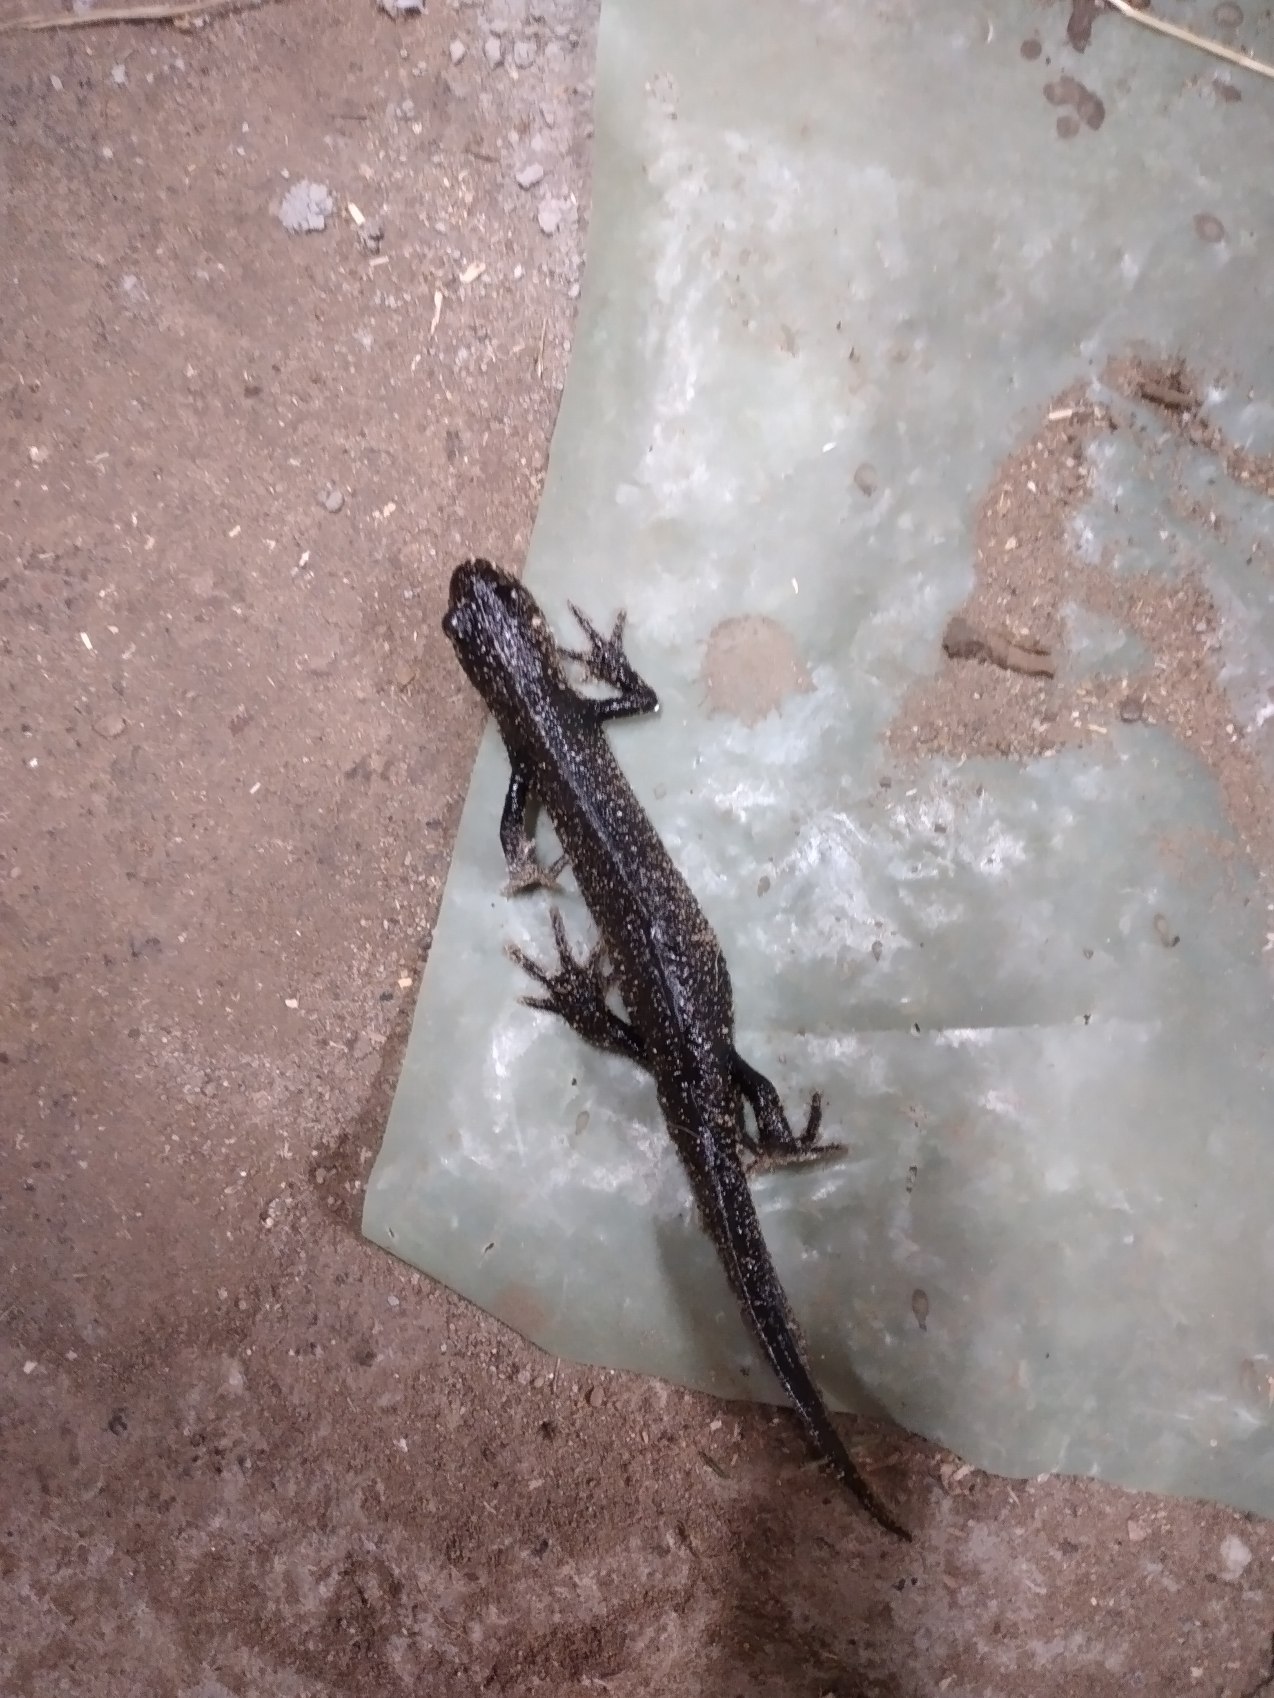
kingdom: Animalia
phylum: Chordata
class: Amphibia
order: Caudata
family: Salamandridae
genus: Triturus
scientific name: Triturus cristatus
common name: Stor vandsalamander
